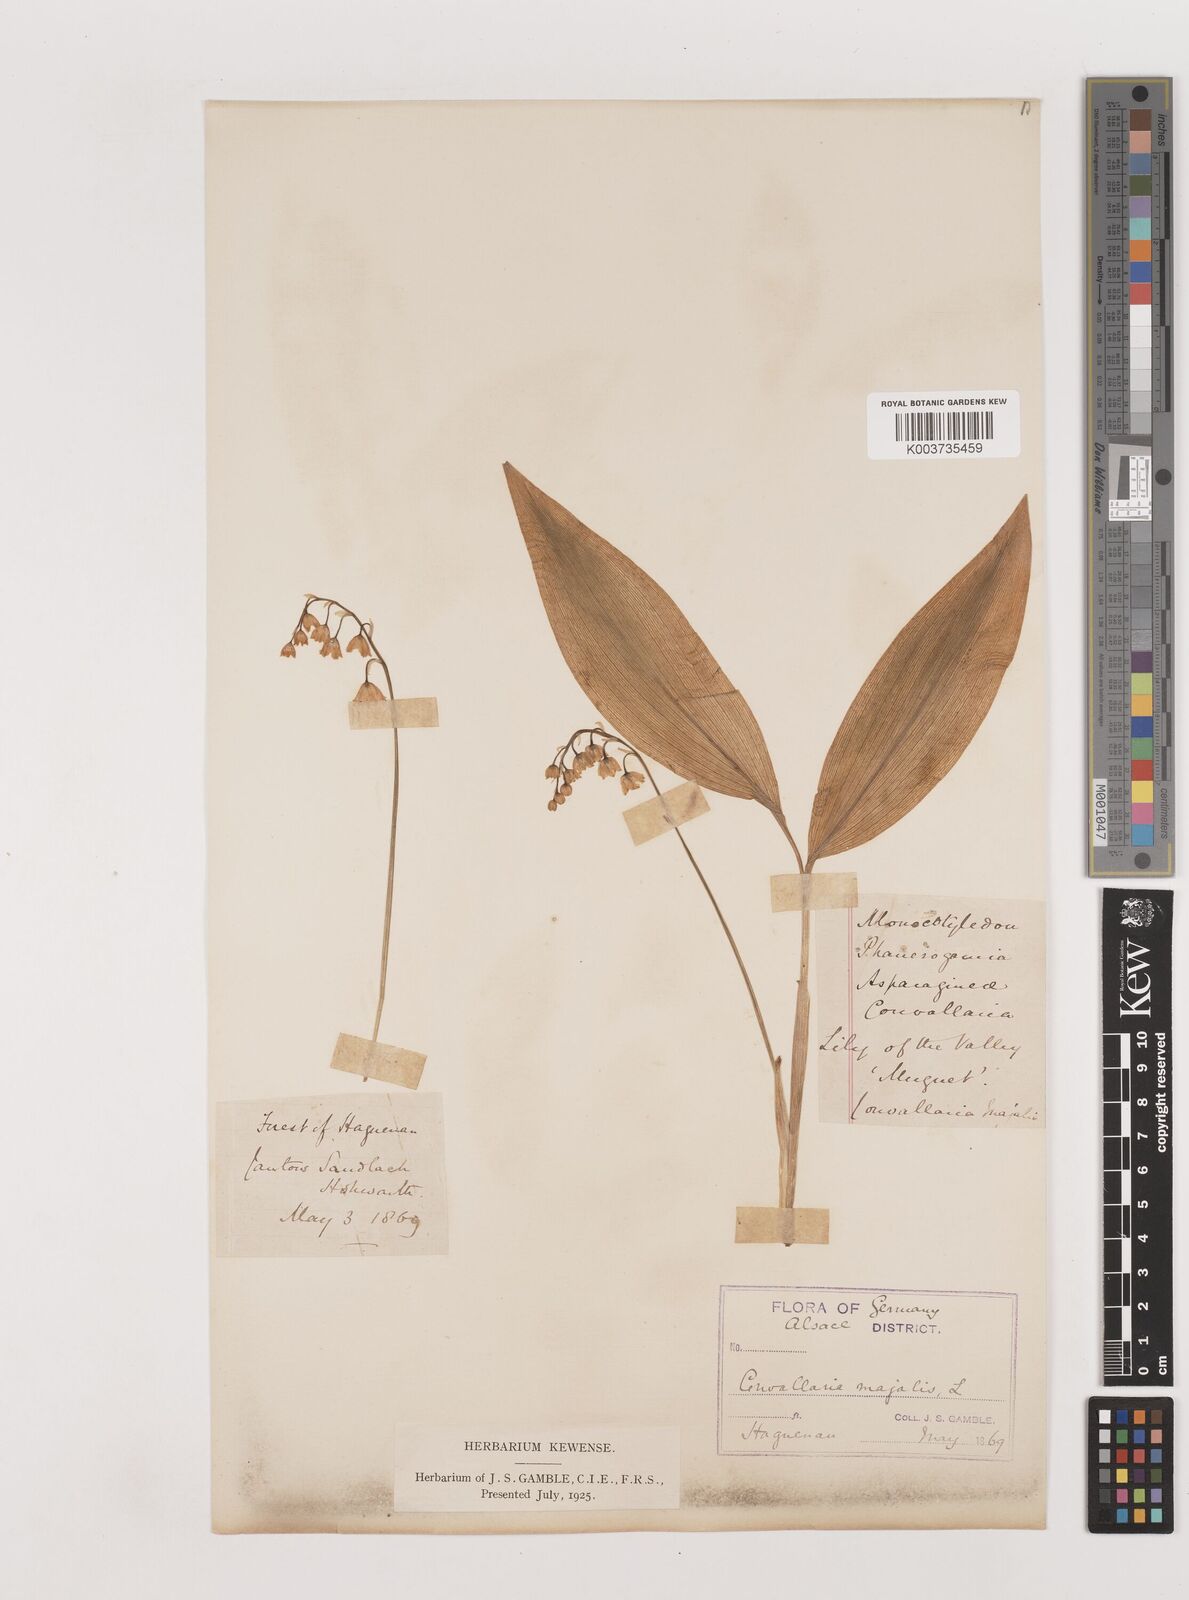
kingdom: Plantae
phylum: Tracheophyta
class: Liliopsida
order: Asparagales
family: Asparagaceae
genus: Convallaria
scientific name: Convallaria majalis
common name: Lily-of-the-valley
